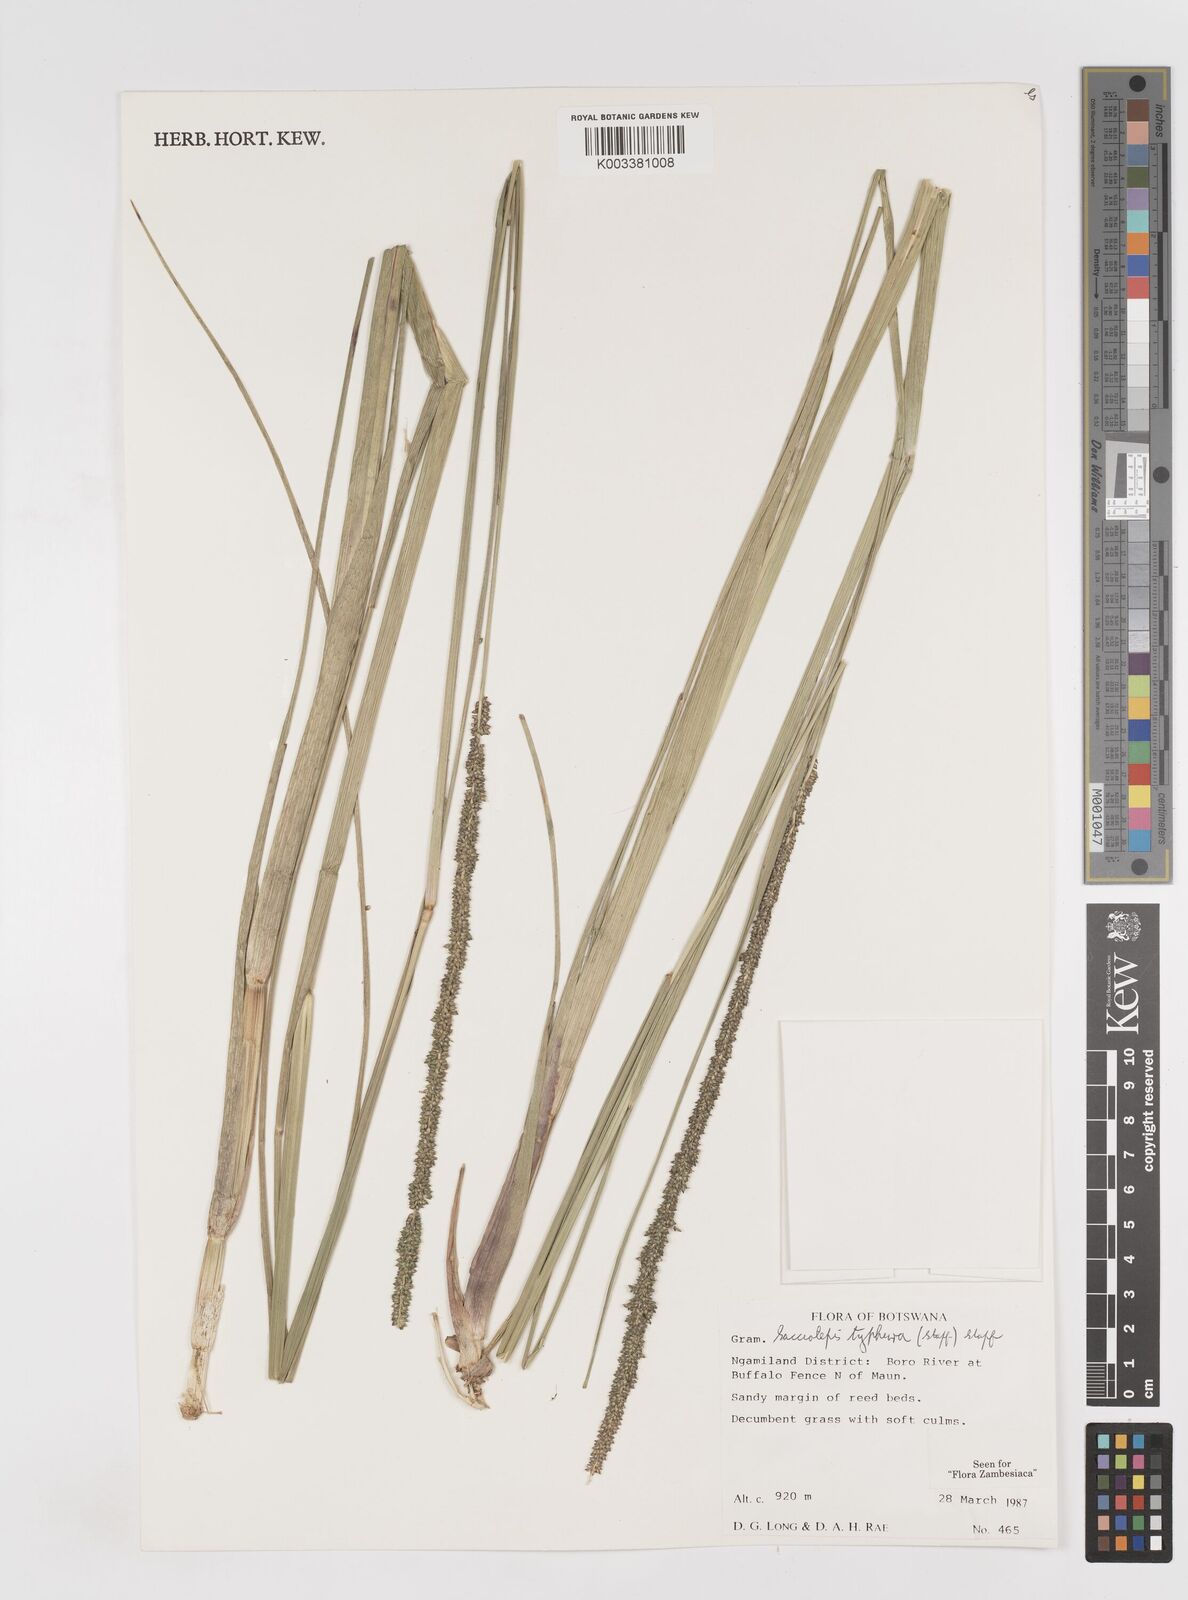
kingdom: Plantae
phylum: Tracheophyta
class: Liliopsida
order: Poales
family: Poaceae
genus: Sacciolepis
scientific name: Sacciolepis typhura
